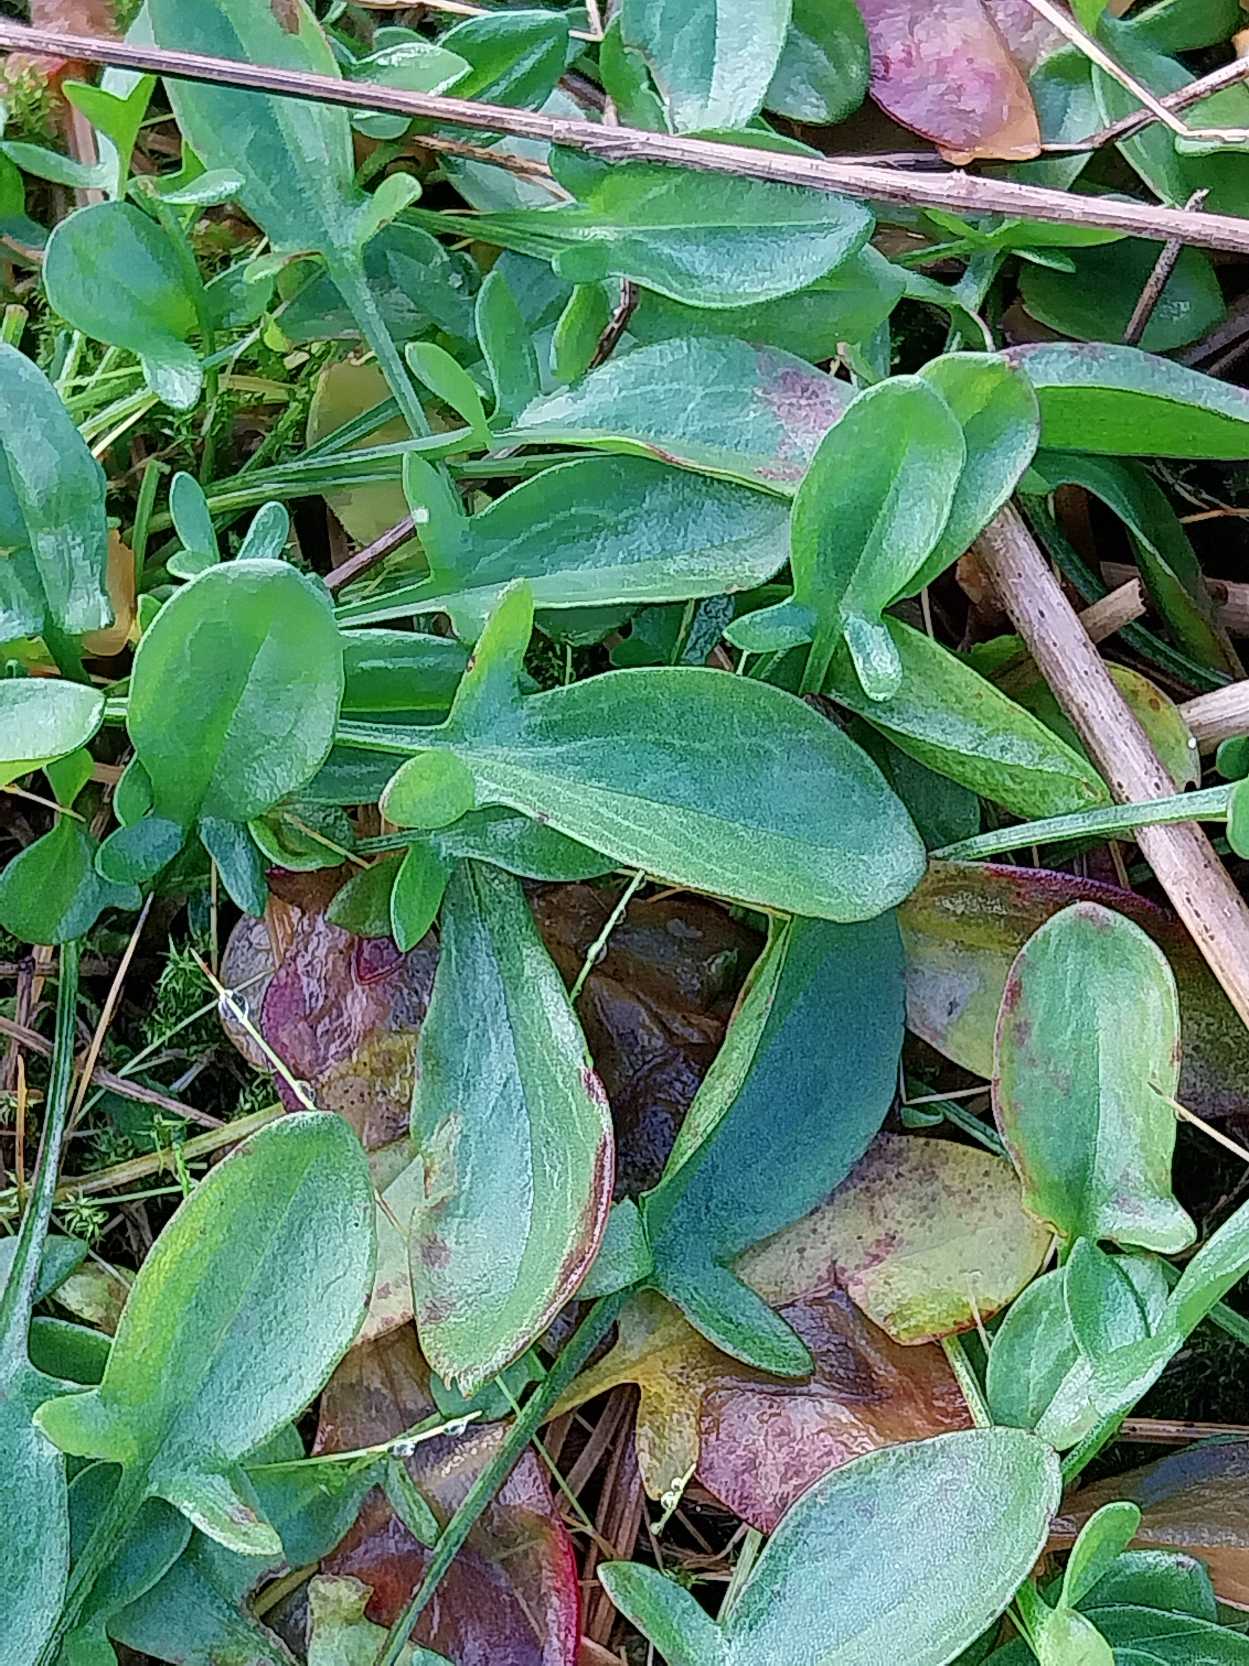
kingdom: Plantae
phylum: Tracheophyta
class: Magnoliopsida
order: Caryophyllales
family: Polygonaceae
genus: Rumex
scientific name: Rumex acetosella
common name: Rødknæ
